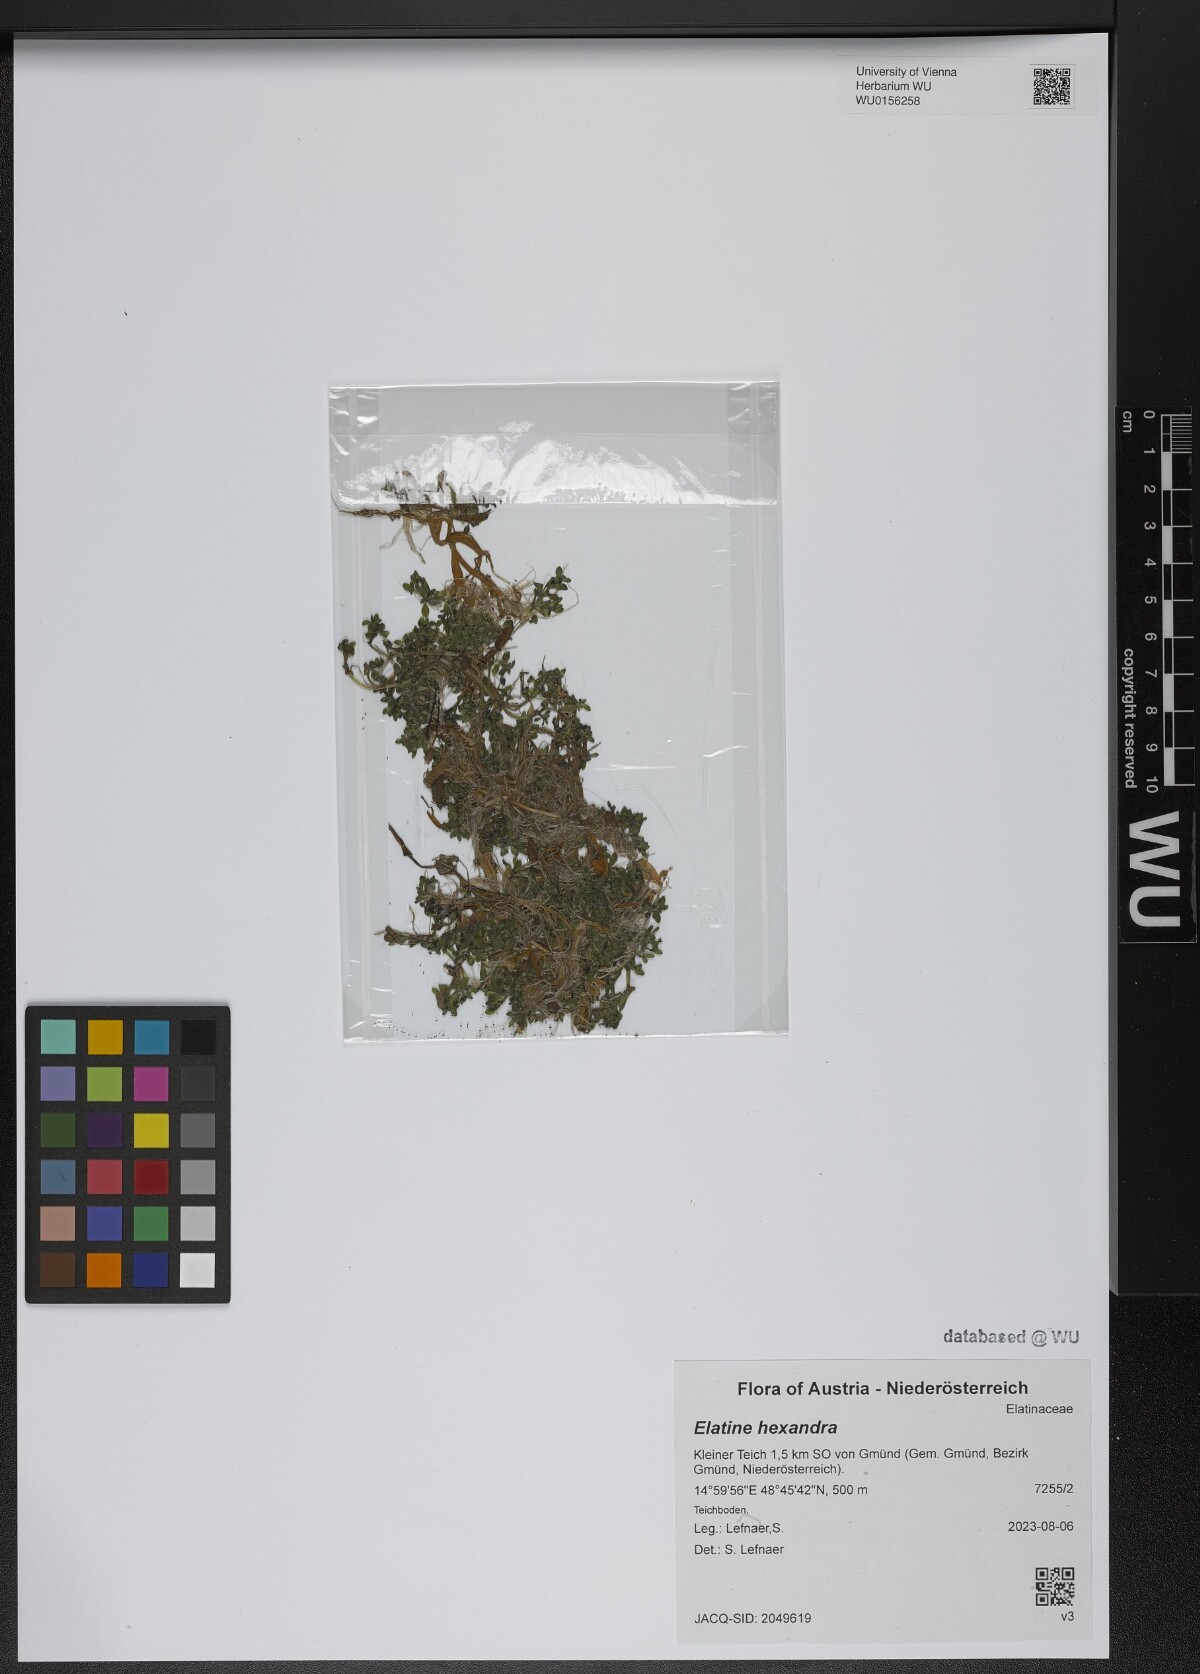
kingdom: Plantae
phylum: Tracheophyta
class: Magnoliopsida
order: Malpighiales
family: Elatinaceae
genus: Elatine
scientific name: Elatine hexandra
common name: Six-stamened waterwort
